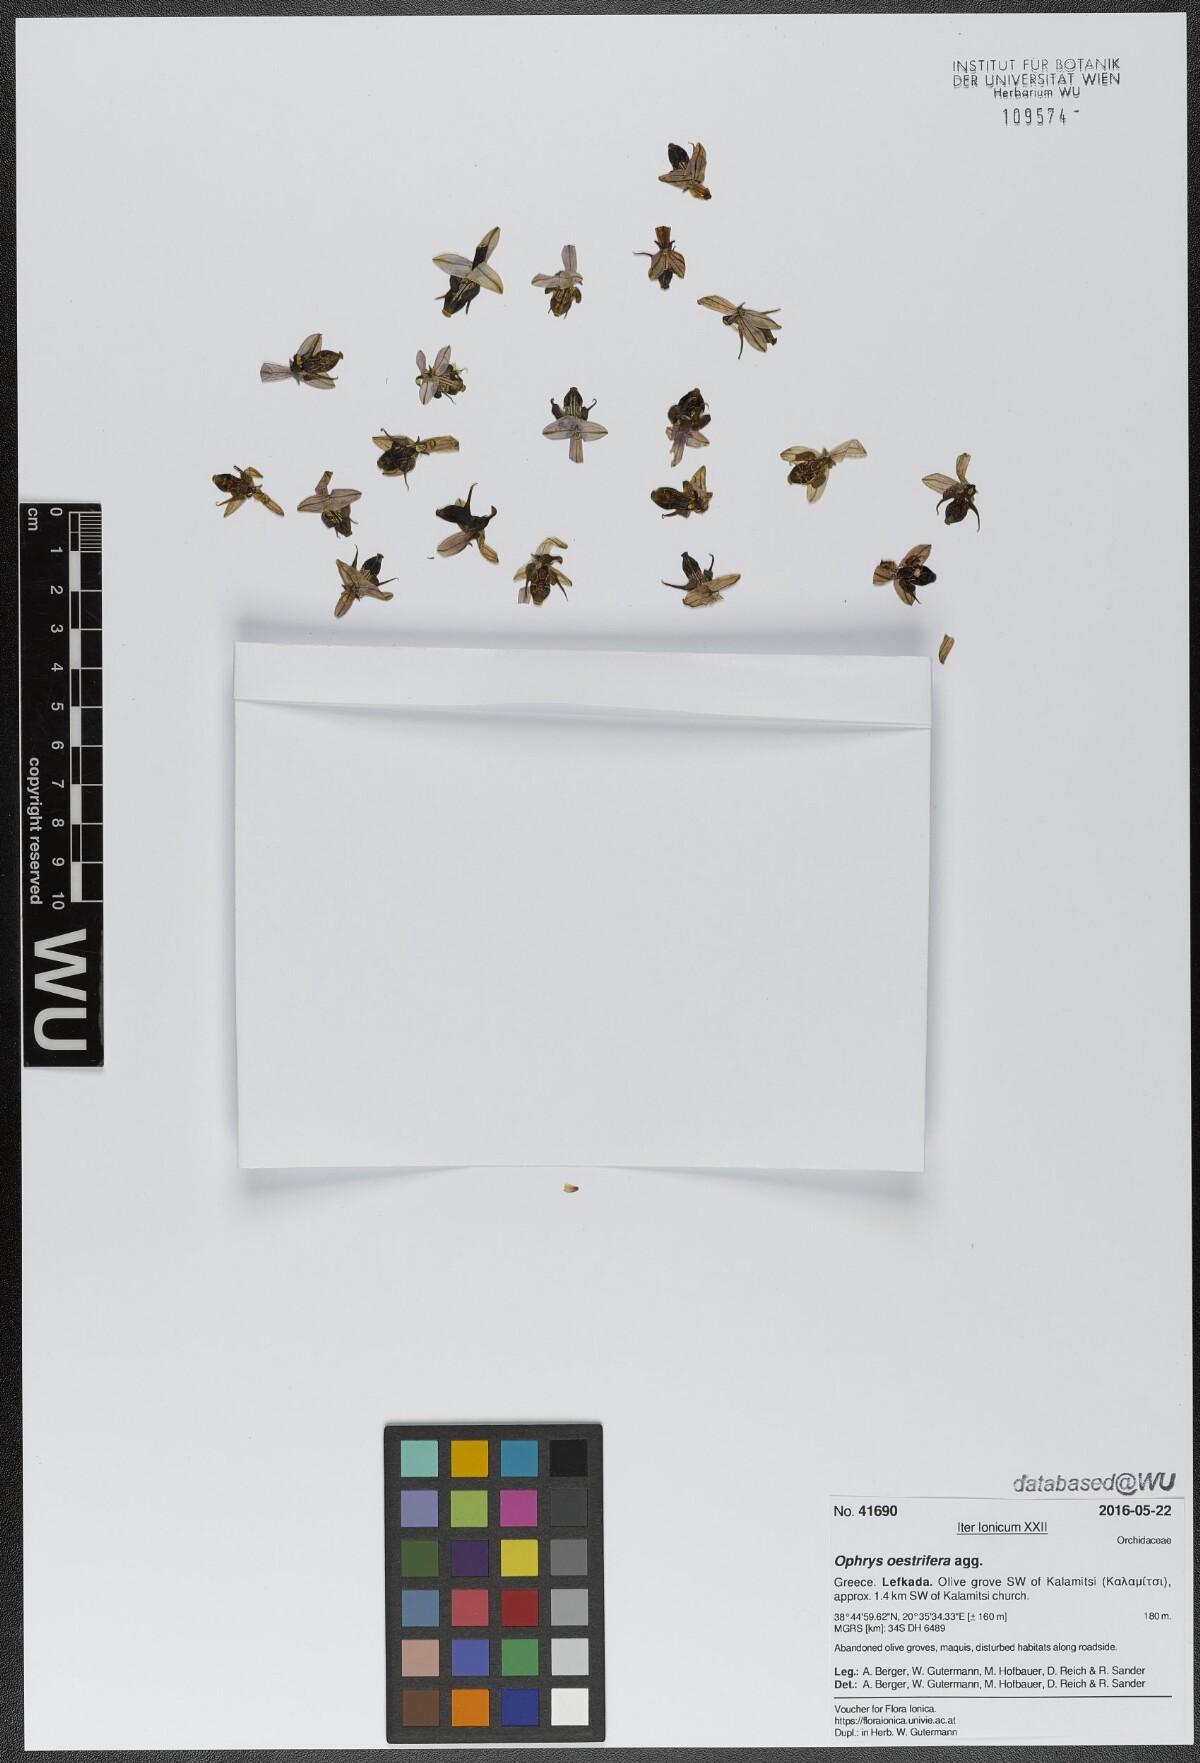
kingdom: Plantae
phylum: Tracheophyta
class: Liliopsida
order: Asparagales
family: Orchidaceae
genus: Ophrys
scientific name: Ophrys scolopax
